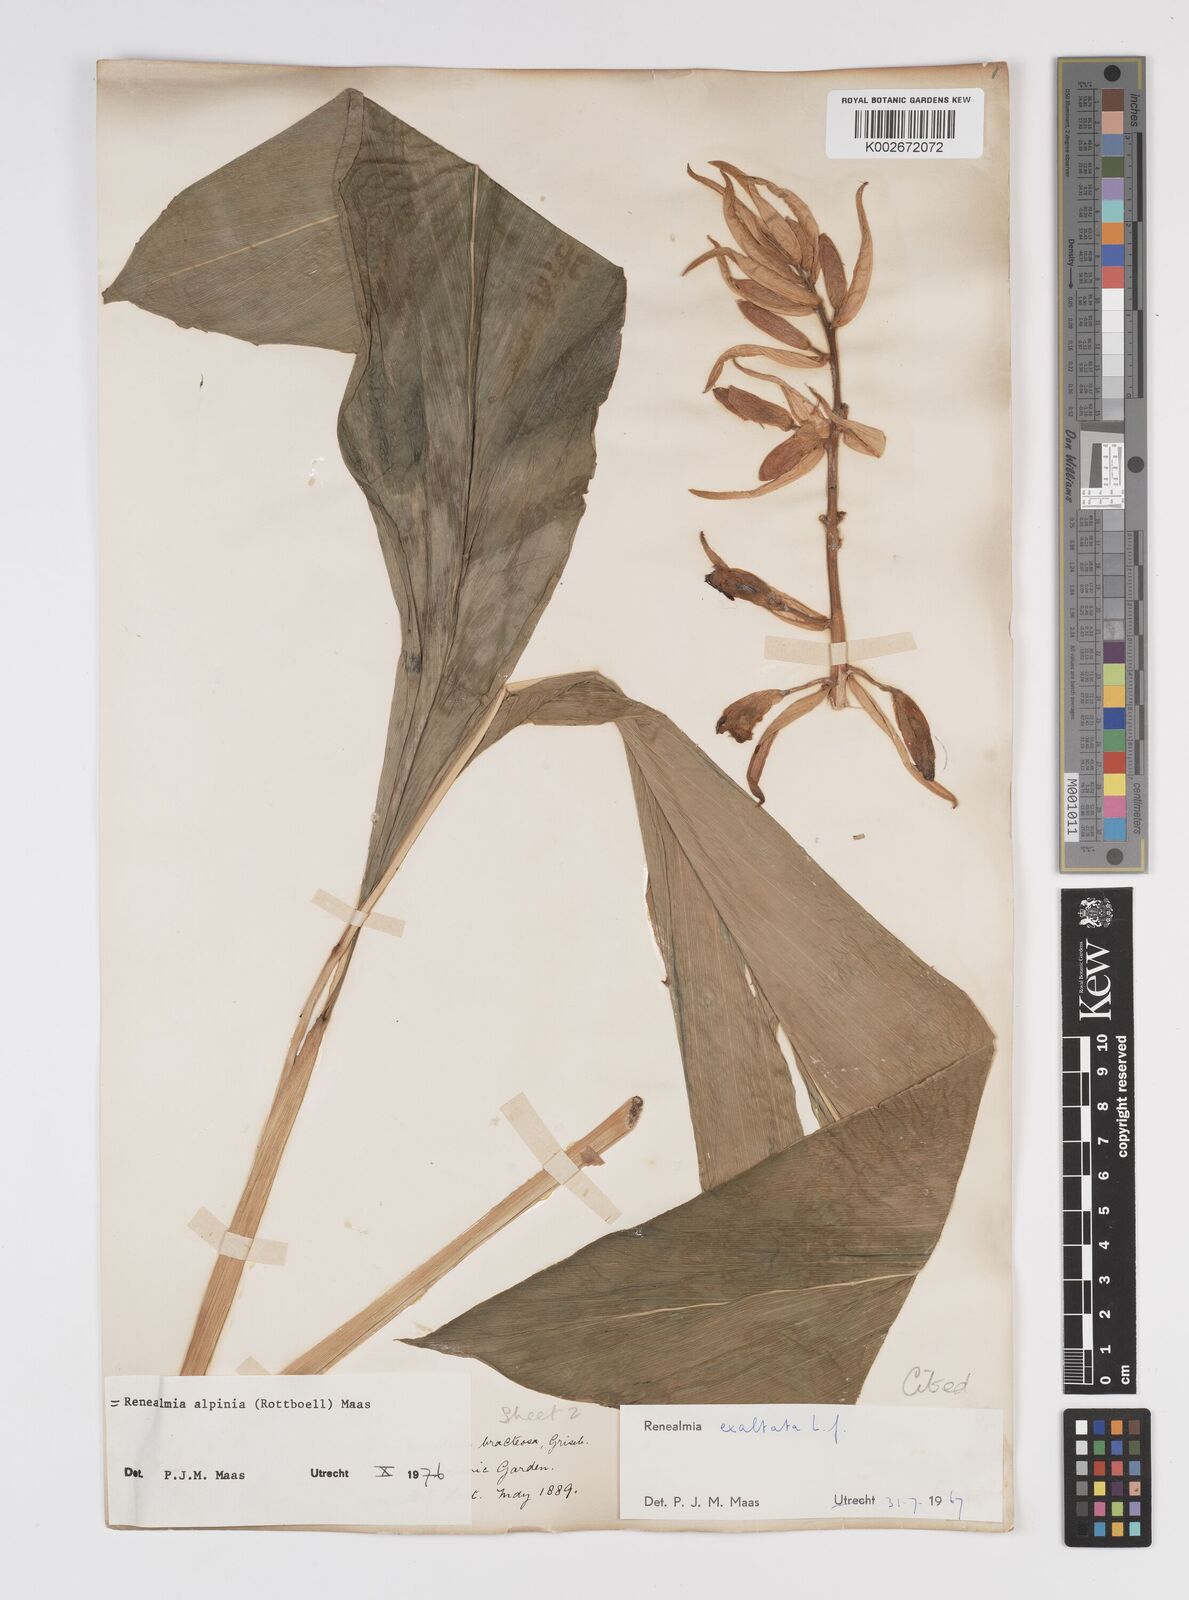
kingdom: Plantae
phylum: Tracheophyta
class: Liliopsida
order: Zingiberales
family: Zingiberaceae
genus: Renealmia
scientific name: Renealmia alpinia
